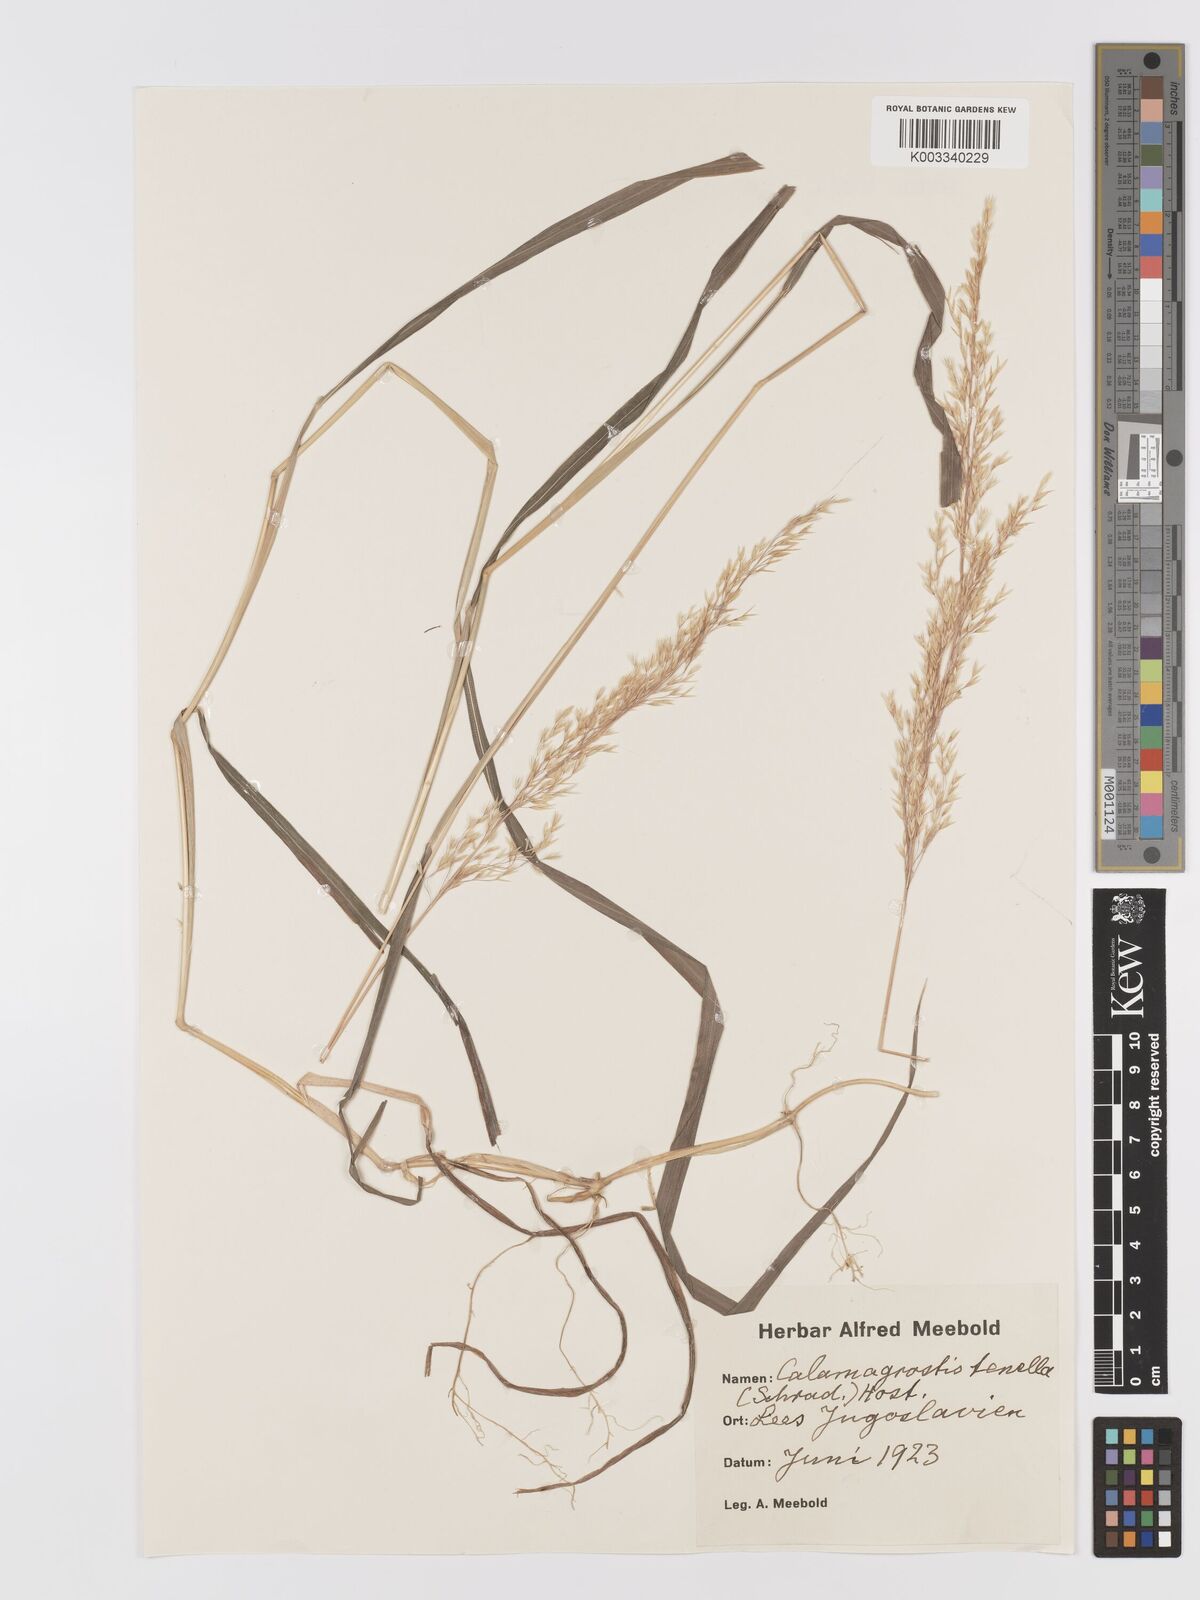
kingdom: Plantae
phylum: Tracheophyta
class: Liliopsida
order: Poales
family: Poaceae
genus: Agrostis
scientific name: Agrostis schraderiana
